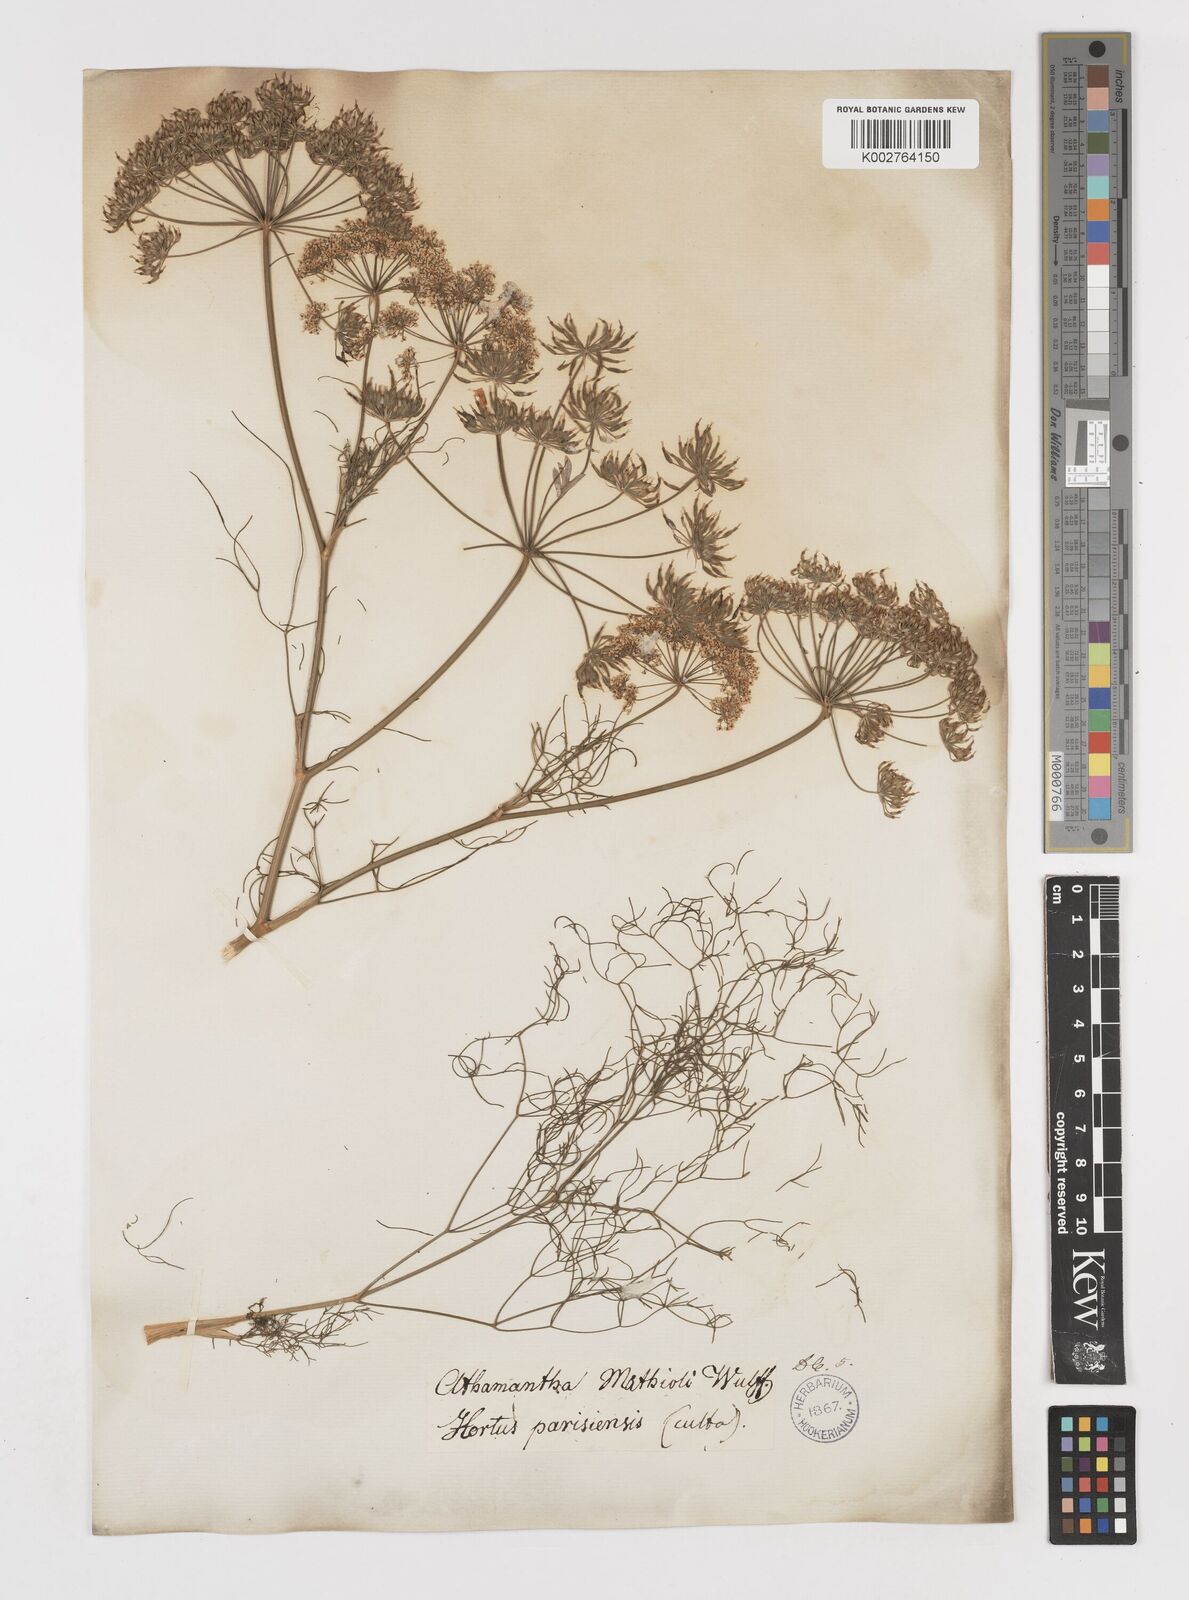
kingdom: Plantae
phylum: Tracheophyta
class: Magnoliopsida
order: Apiales
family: Apiaceae
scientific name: Apiaceae
